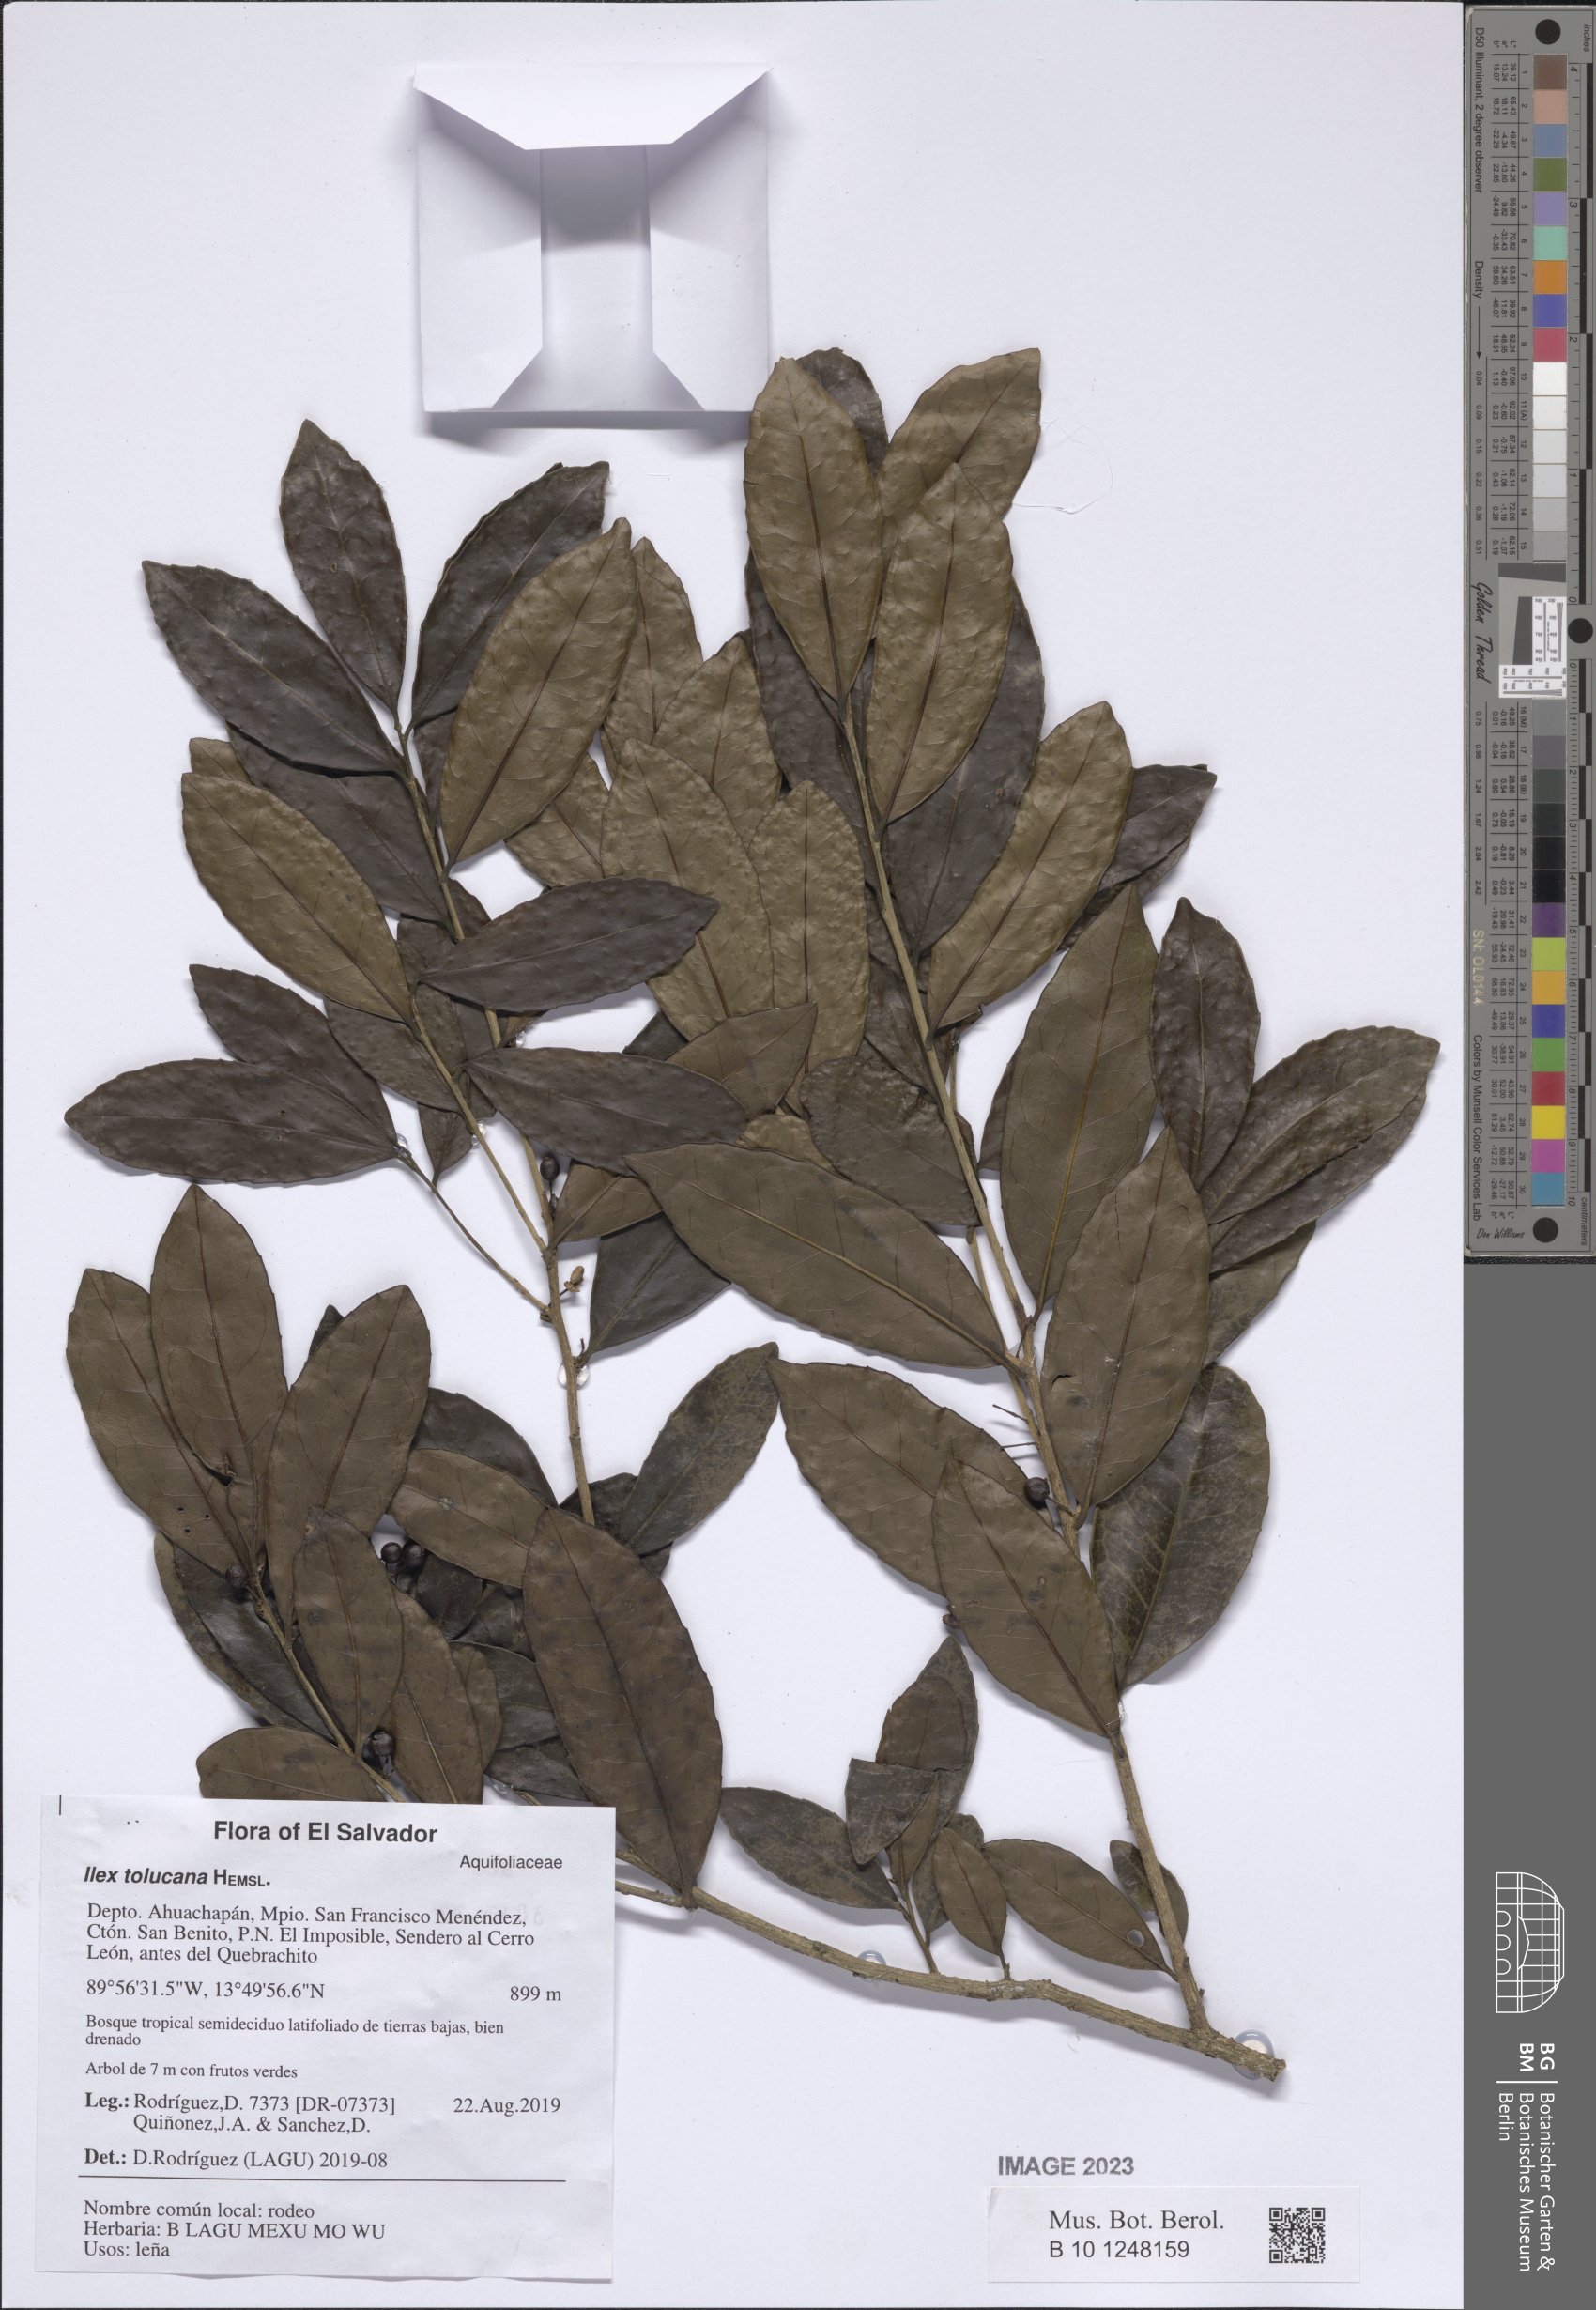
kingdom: Plantae
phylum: Tracheophyta
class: Magnoliopsida
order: Aquifoliales
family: Aquifoliaceae
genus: Ilex
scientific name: Ilex discolor
